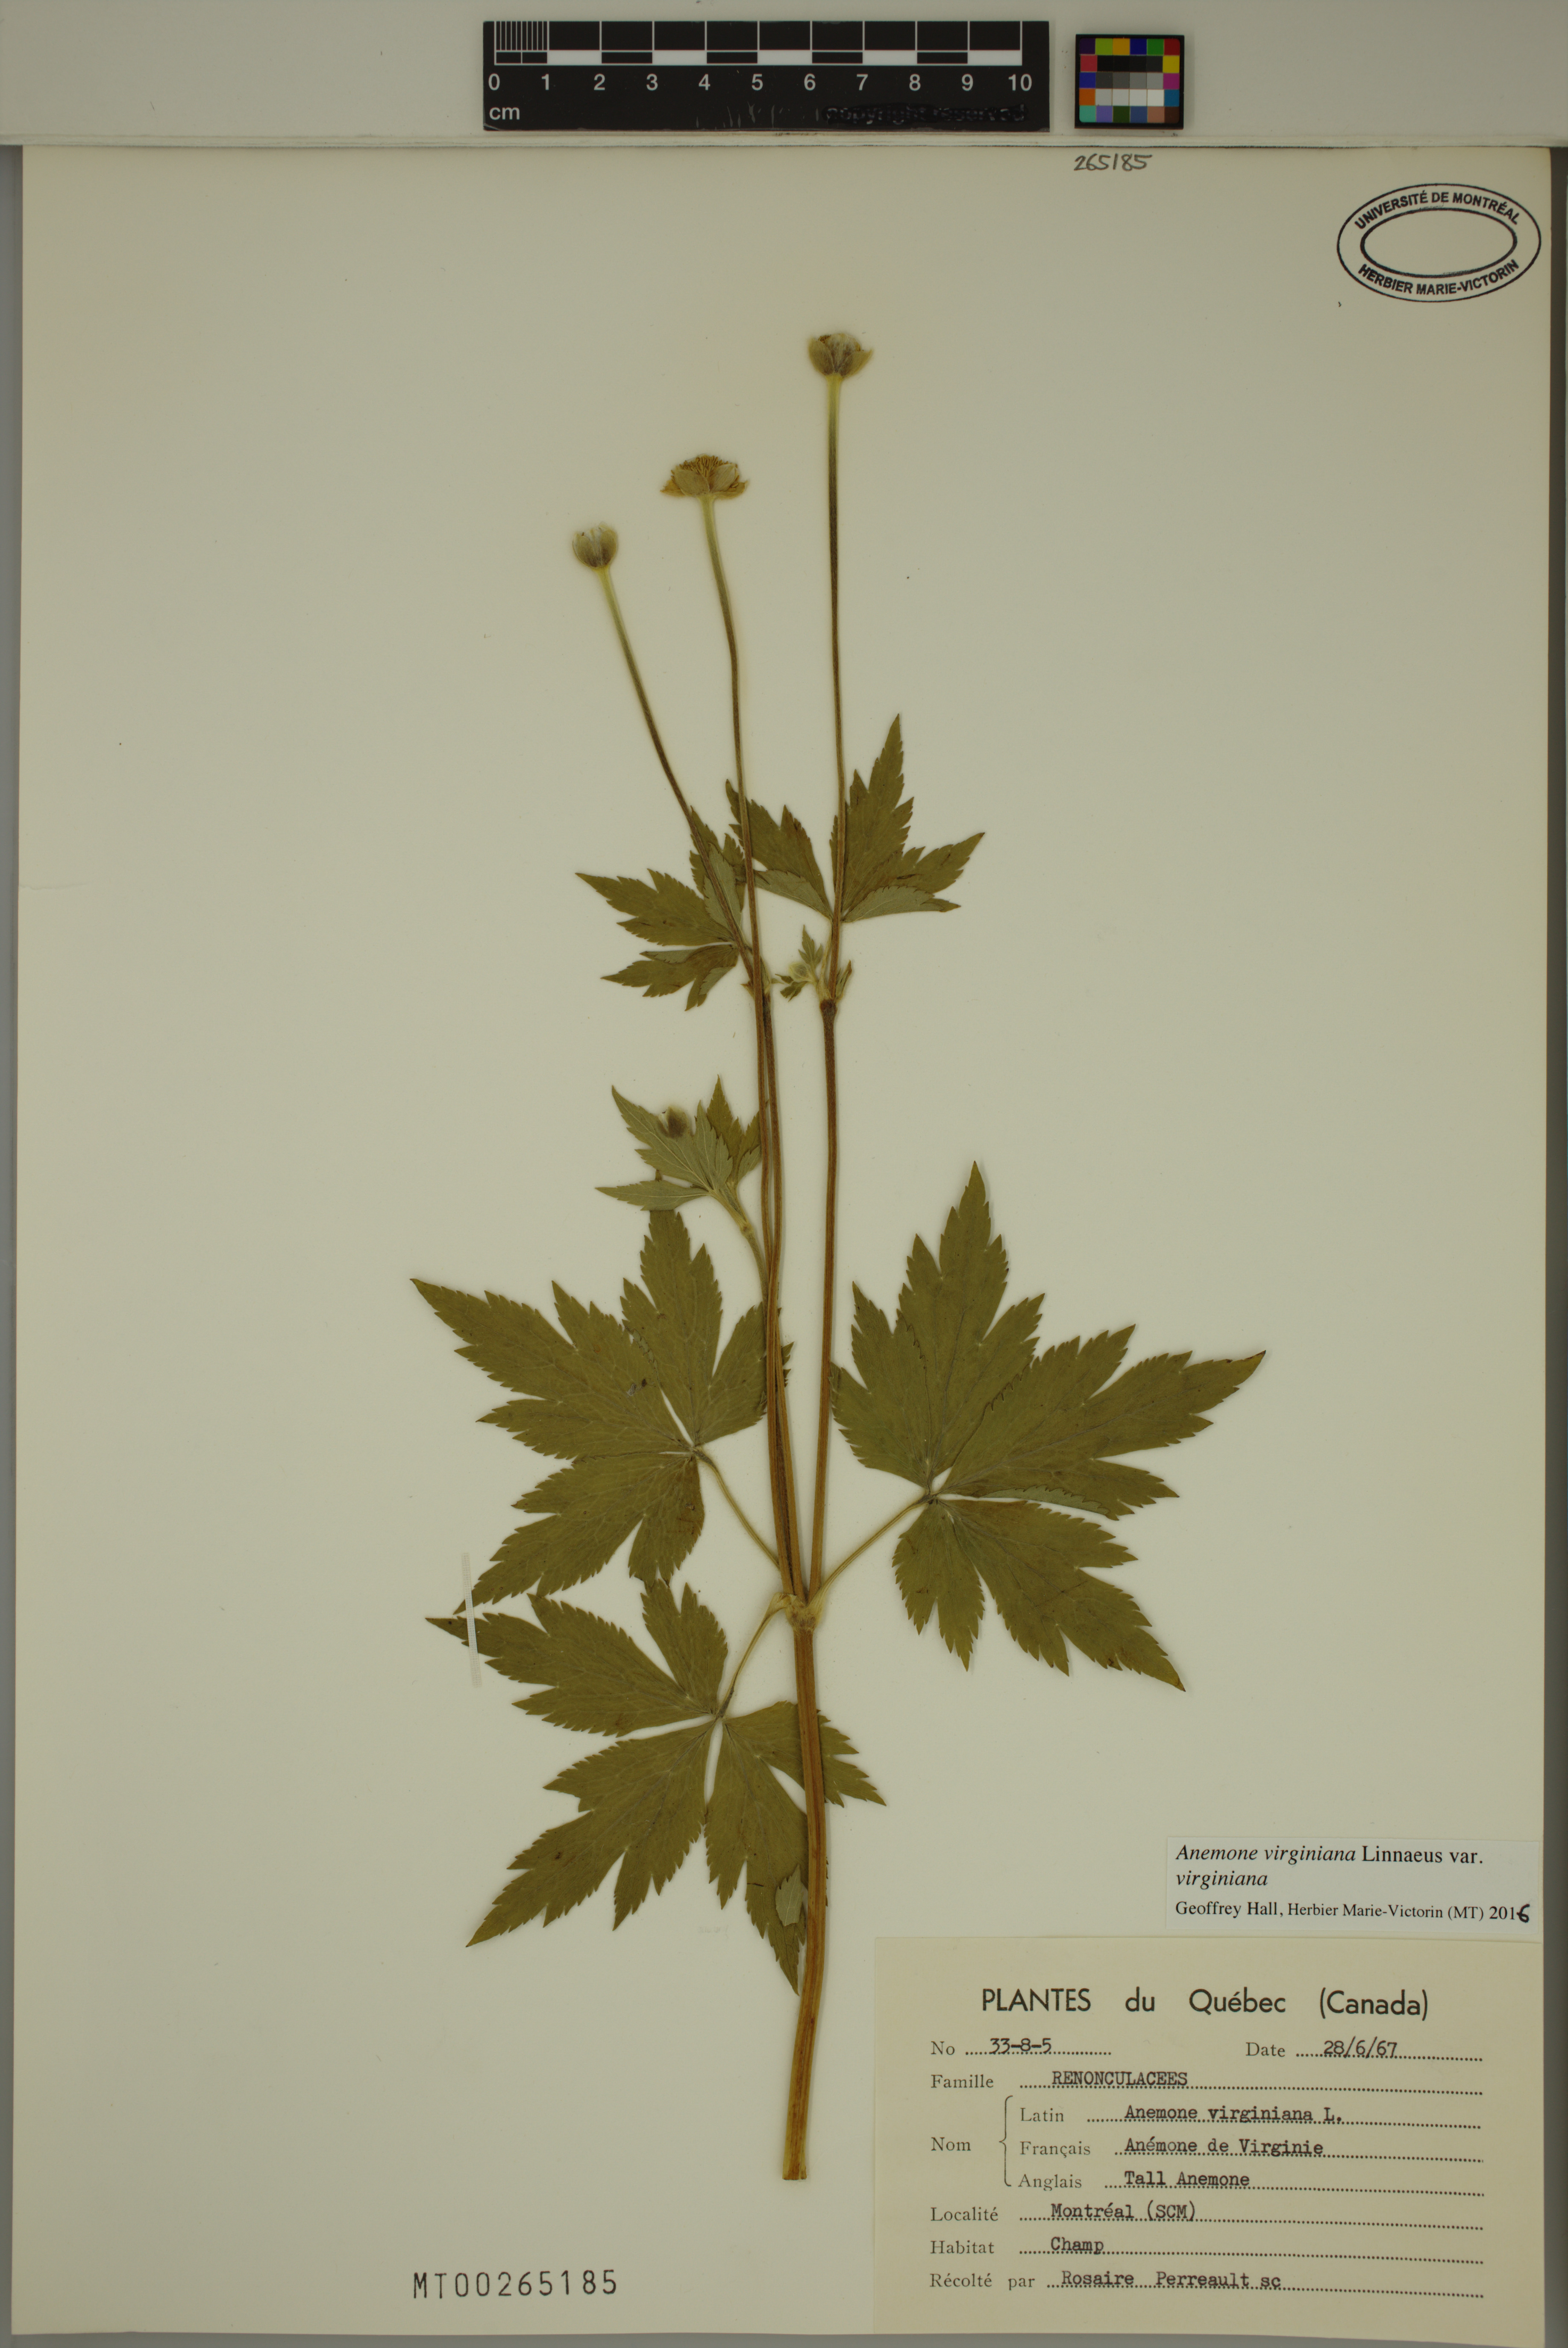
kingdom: Plantae
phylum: Tracheophyta
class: Magnoliopsida
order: Ranunculales
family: Ranunculaceae
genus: Anemone
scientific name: Anemone virginiana
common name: Tall anemone
